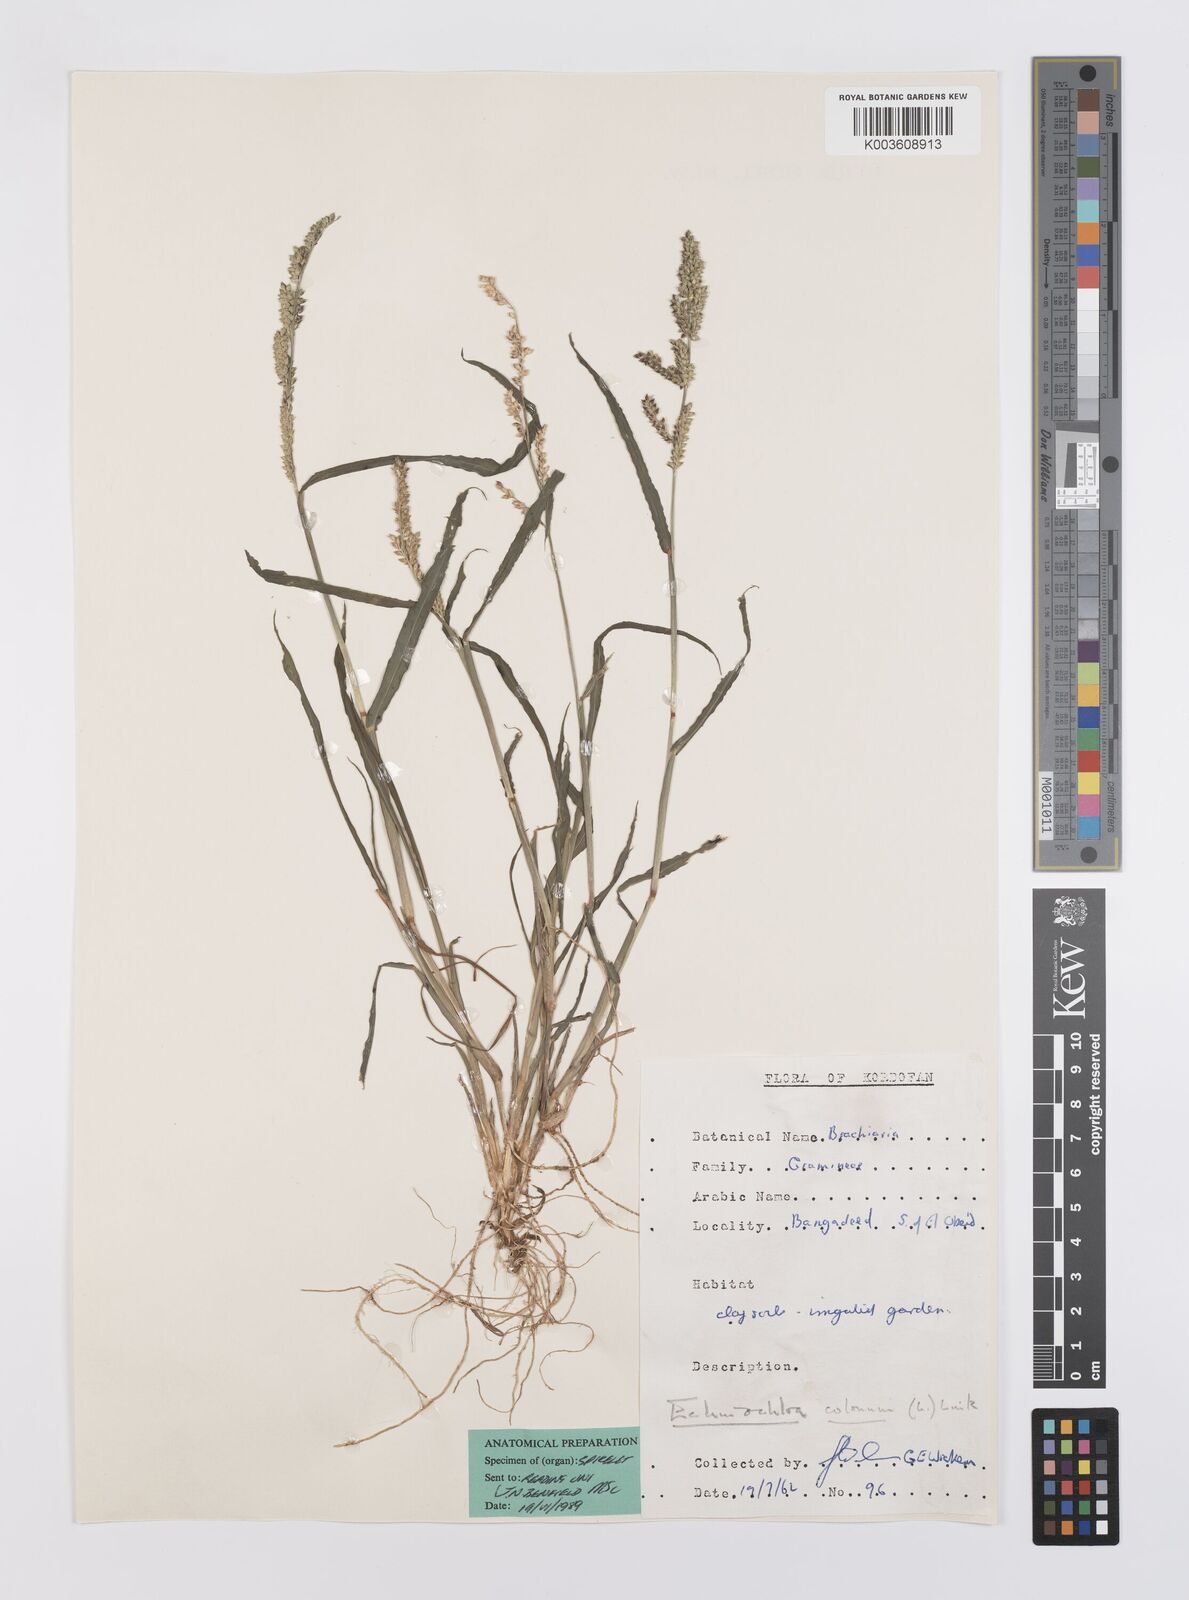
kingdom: Plantae
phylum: Tracheophyta
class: Liliopsida
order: Poales
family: Poaceae
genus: Echinochloa
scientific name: Echinochloa colonum
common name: Jungle rice
